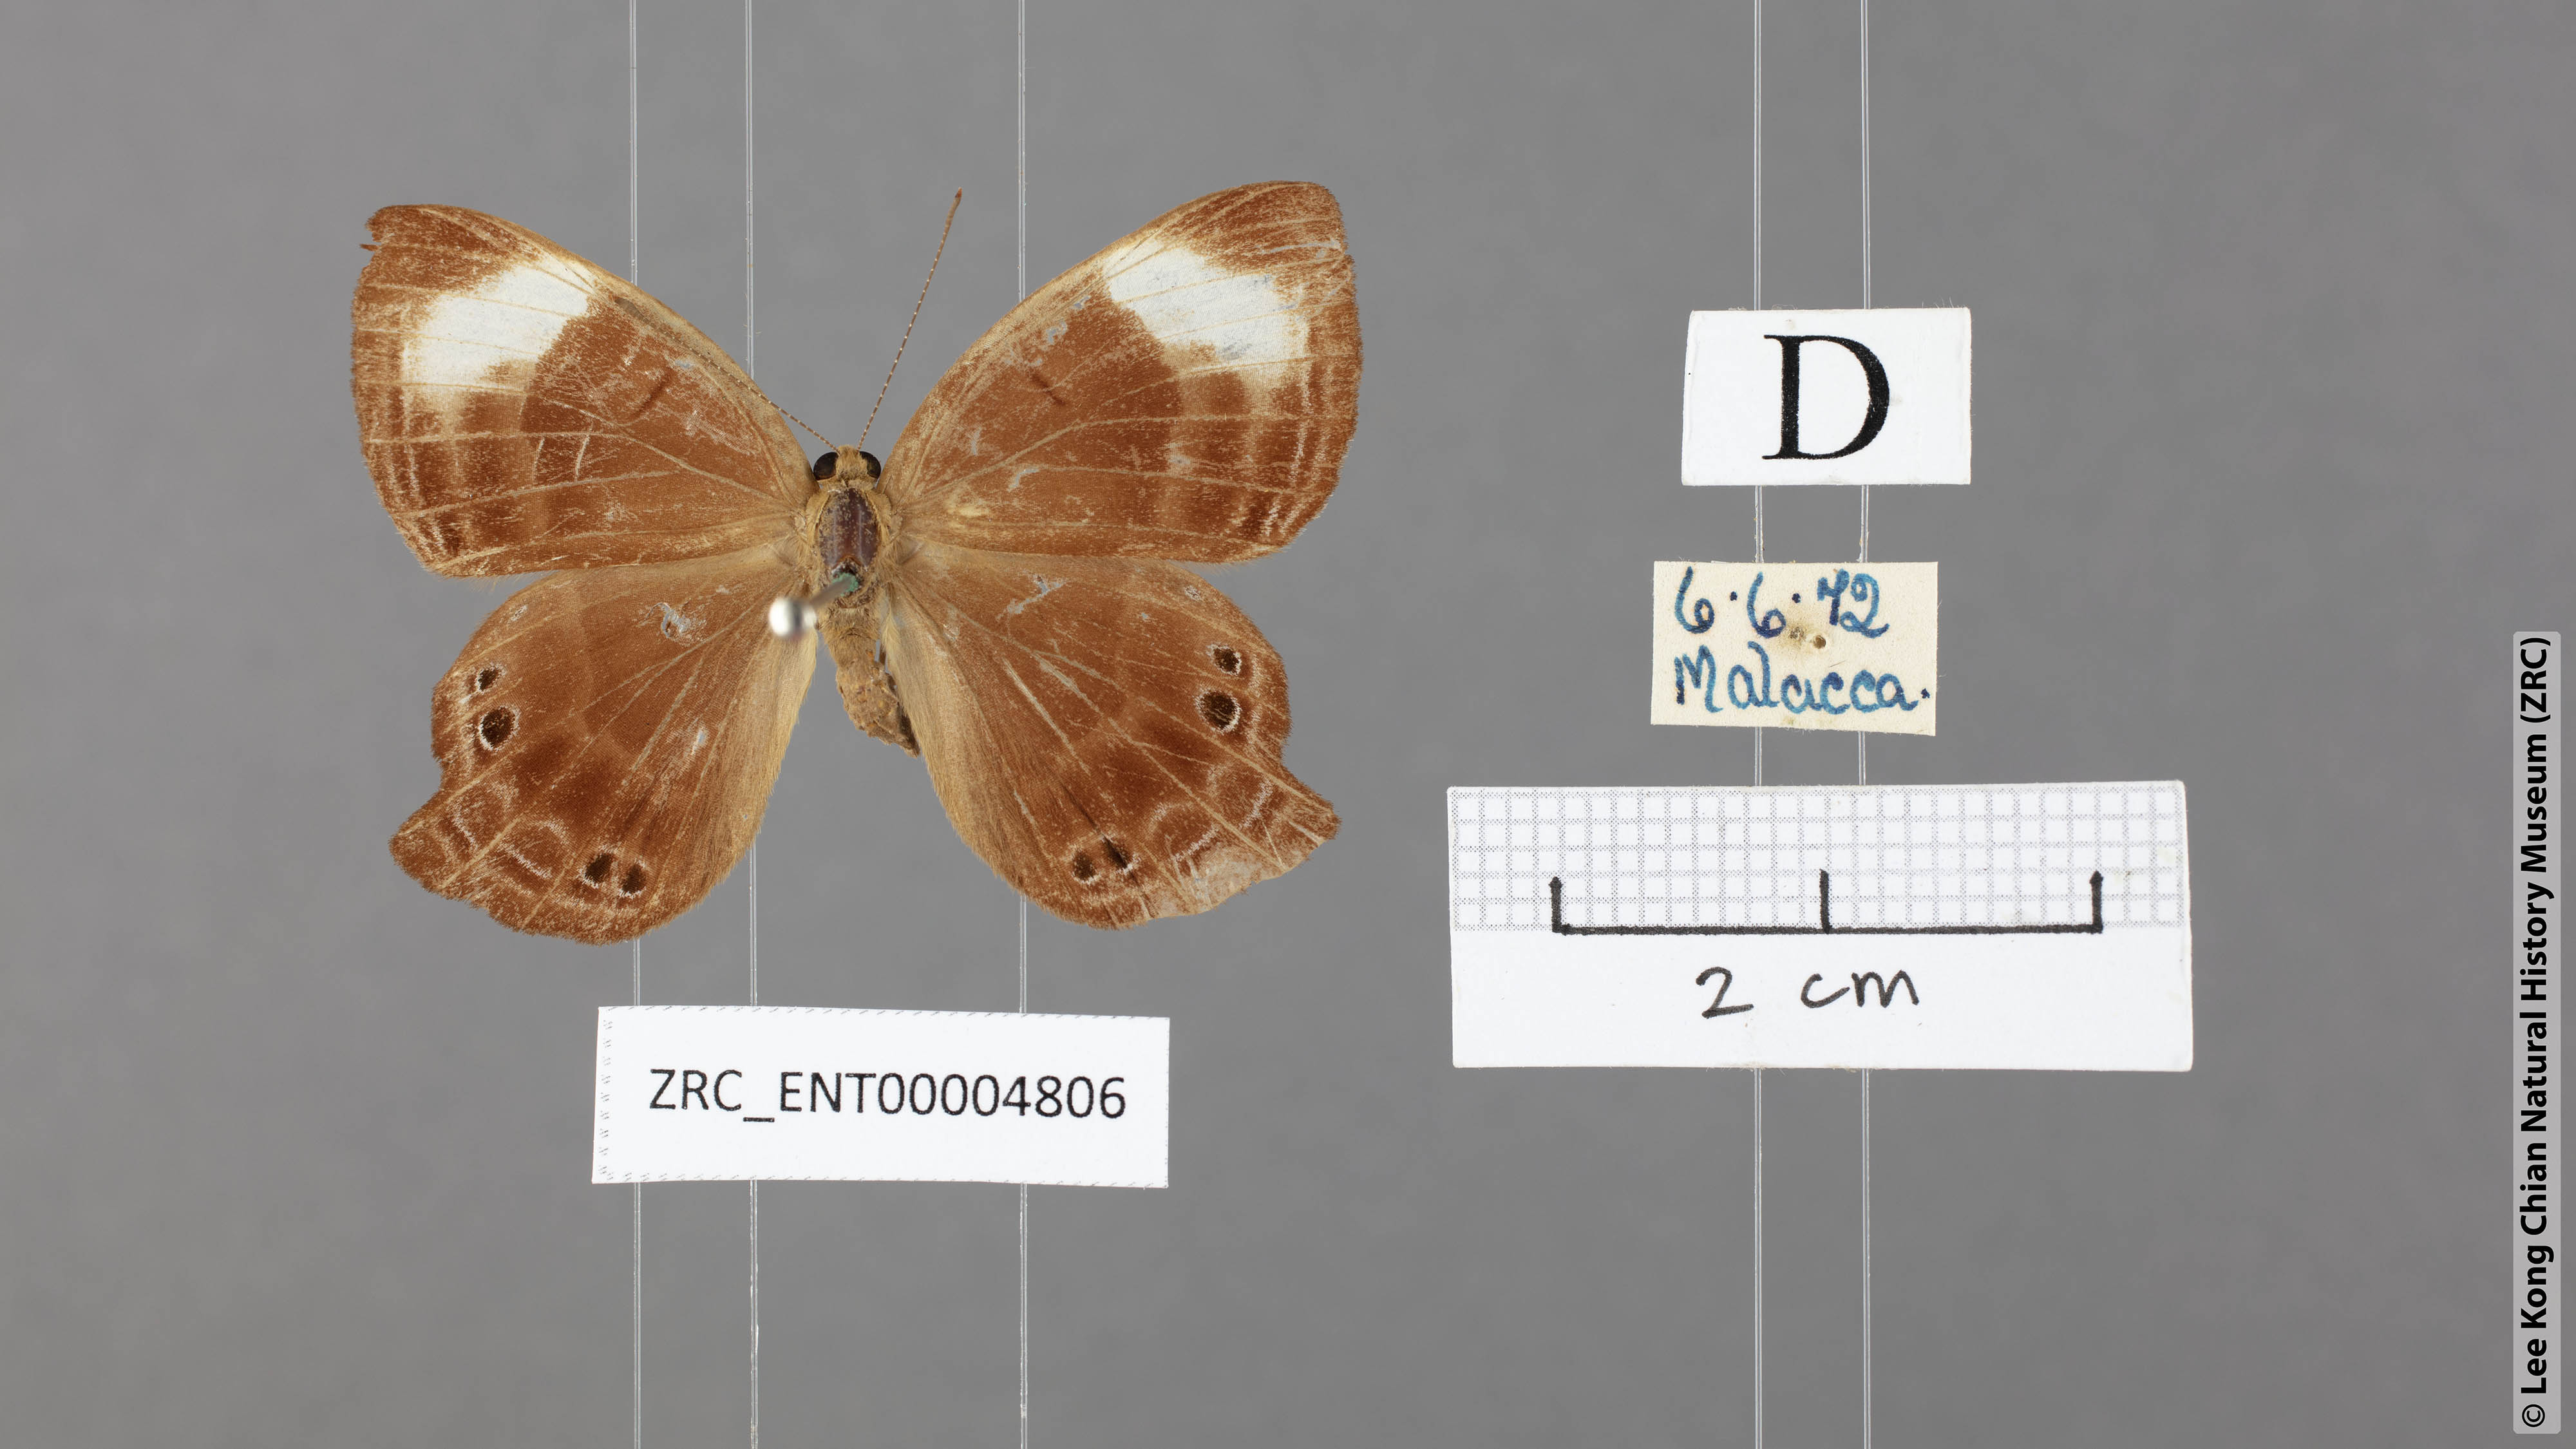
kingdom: Animalia
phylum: Arthropoda
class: Insecta
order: Lepidoptera
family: Lycaenidae
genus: Abisara
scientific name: Abisara saturata
